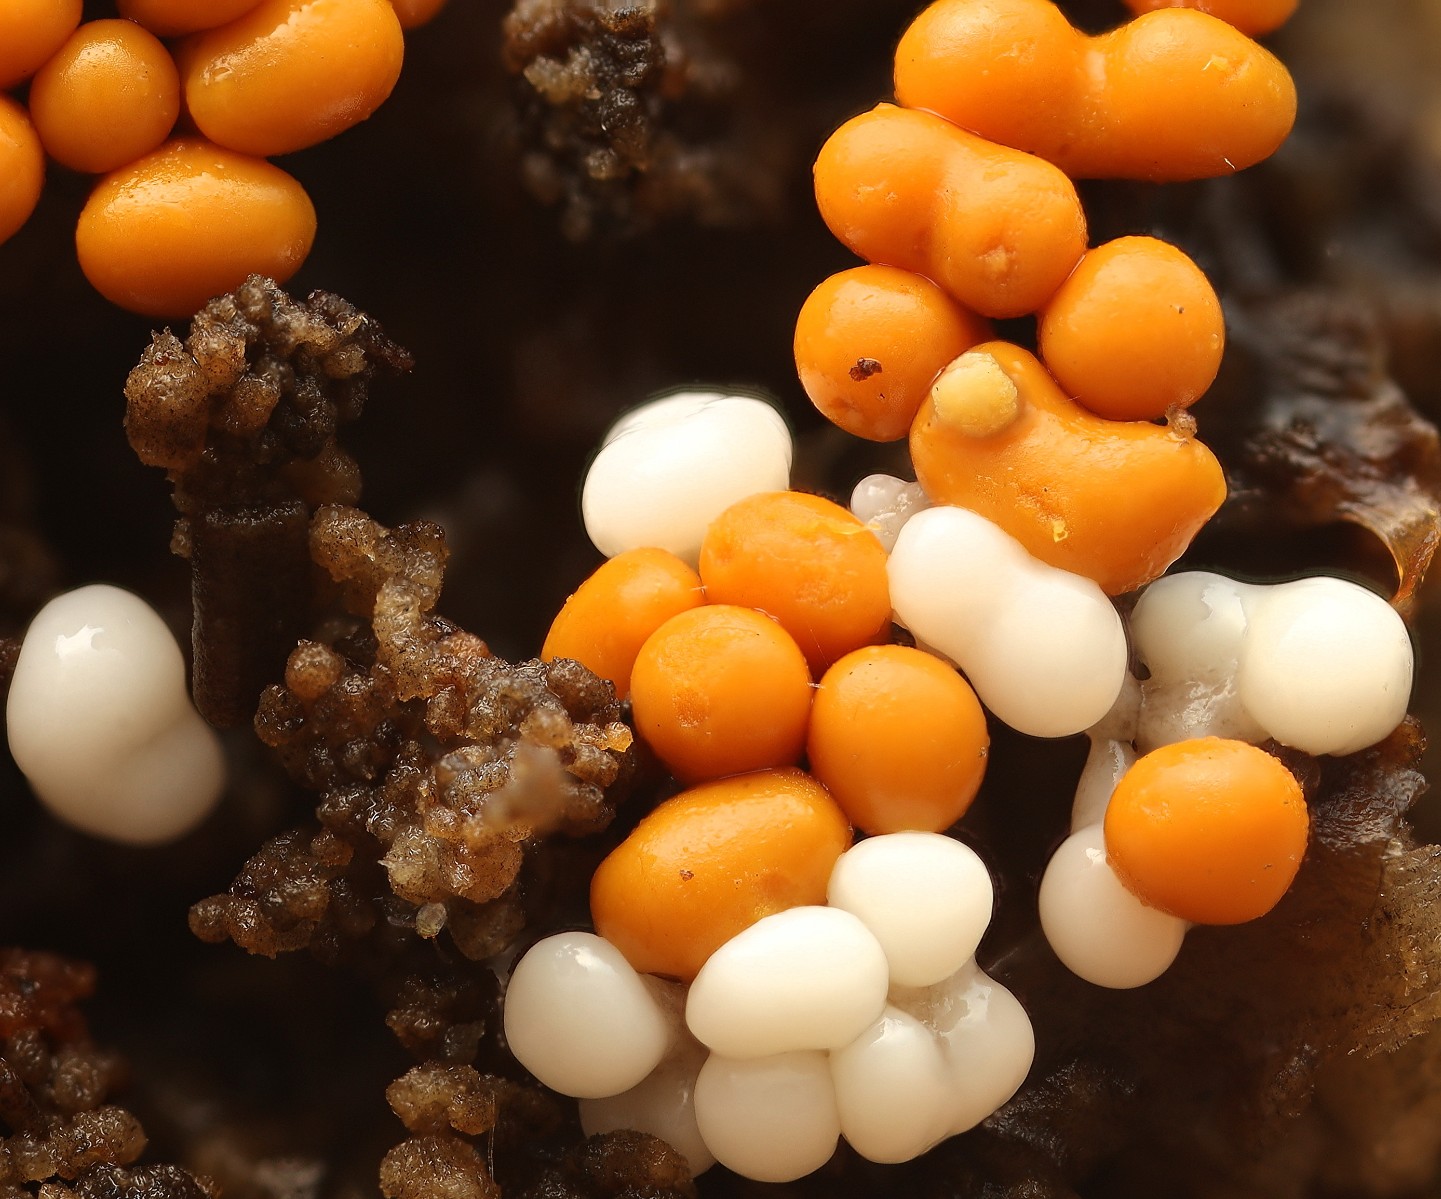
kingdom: Protozoa
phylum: Mycetozoa
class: Myxomycetes
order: Trichiales
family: Trichiaceae
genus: Trichia
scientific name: Trichia varia
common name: foranderlig hårbold
